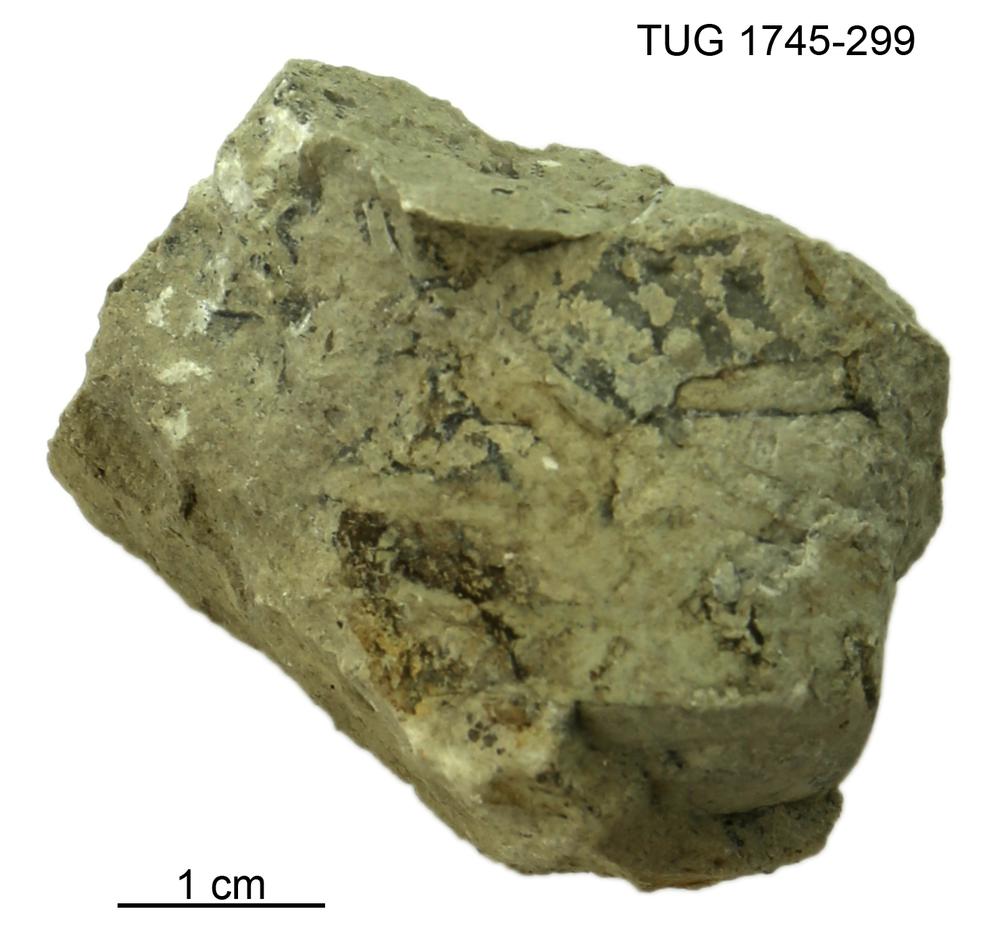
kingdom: Animalia
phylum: Mollusca
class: Cephalopoda
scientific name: Cephalopoda
